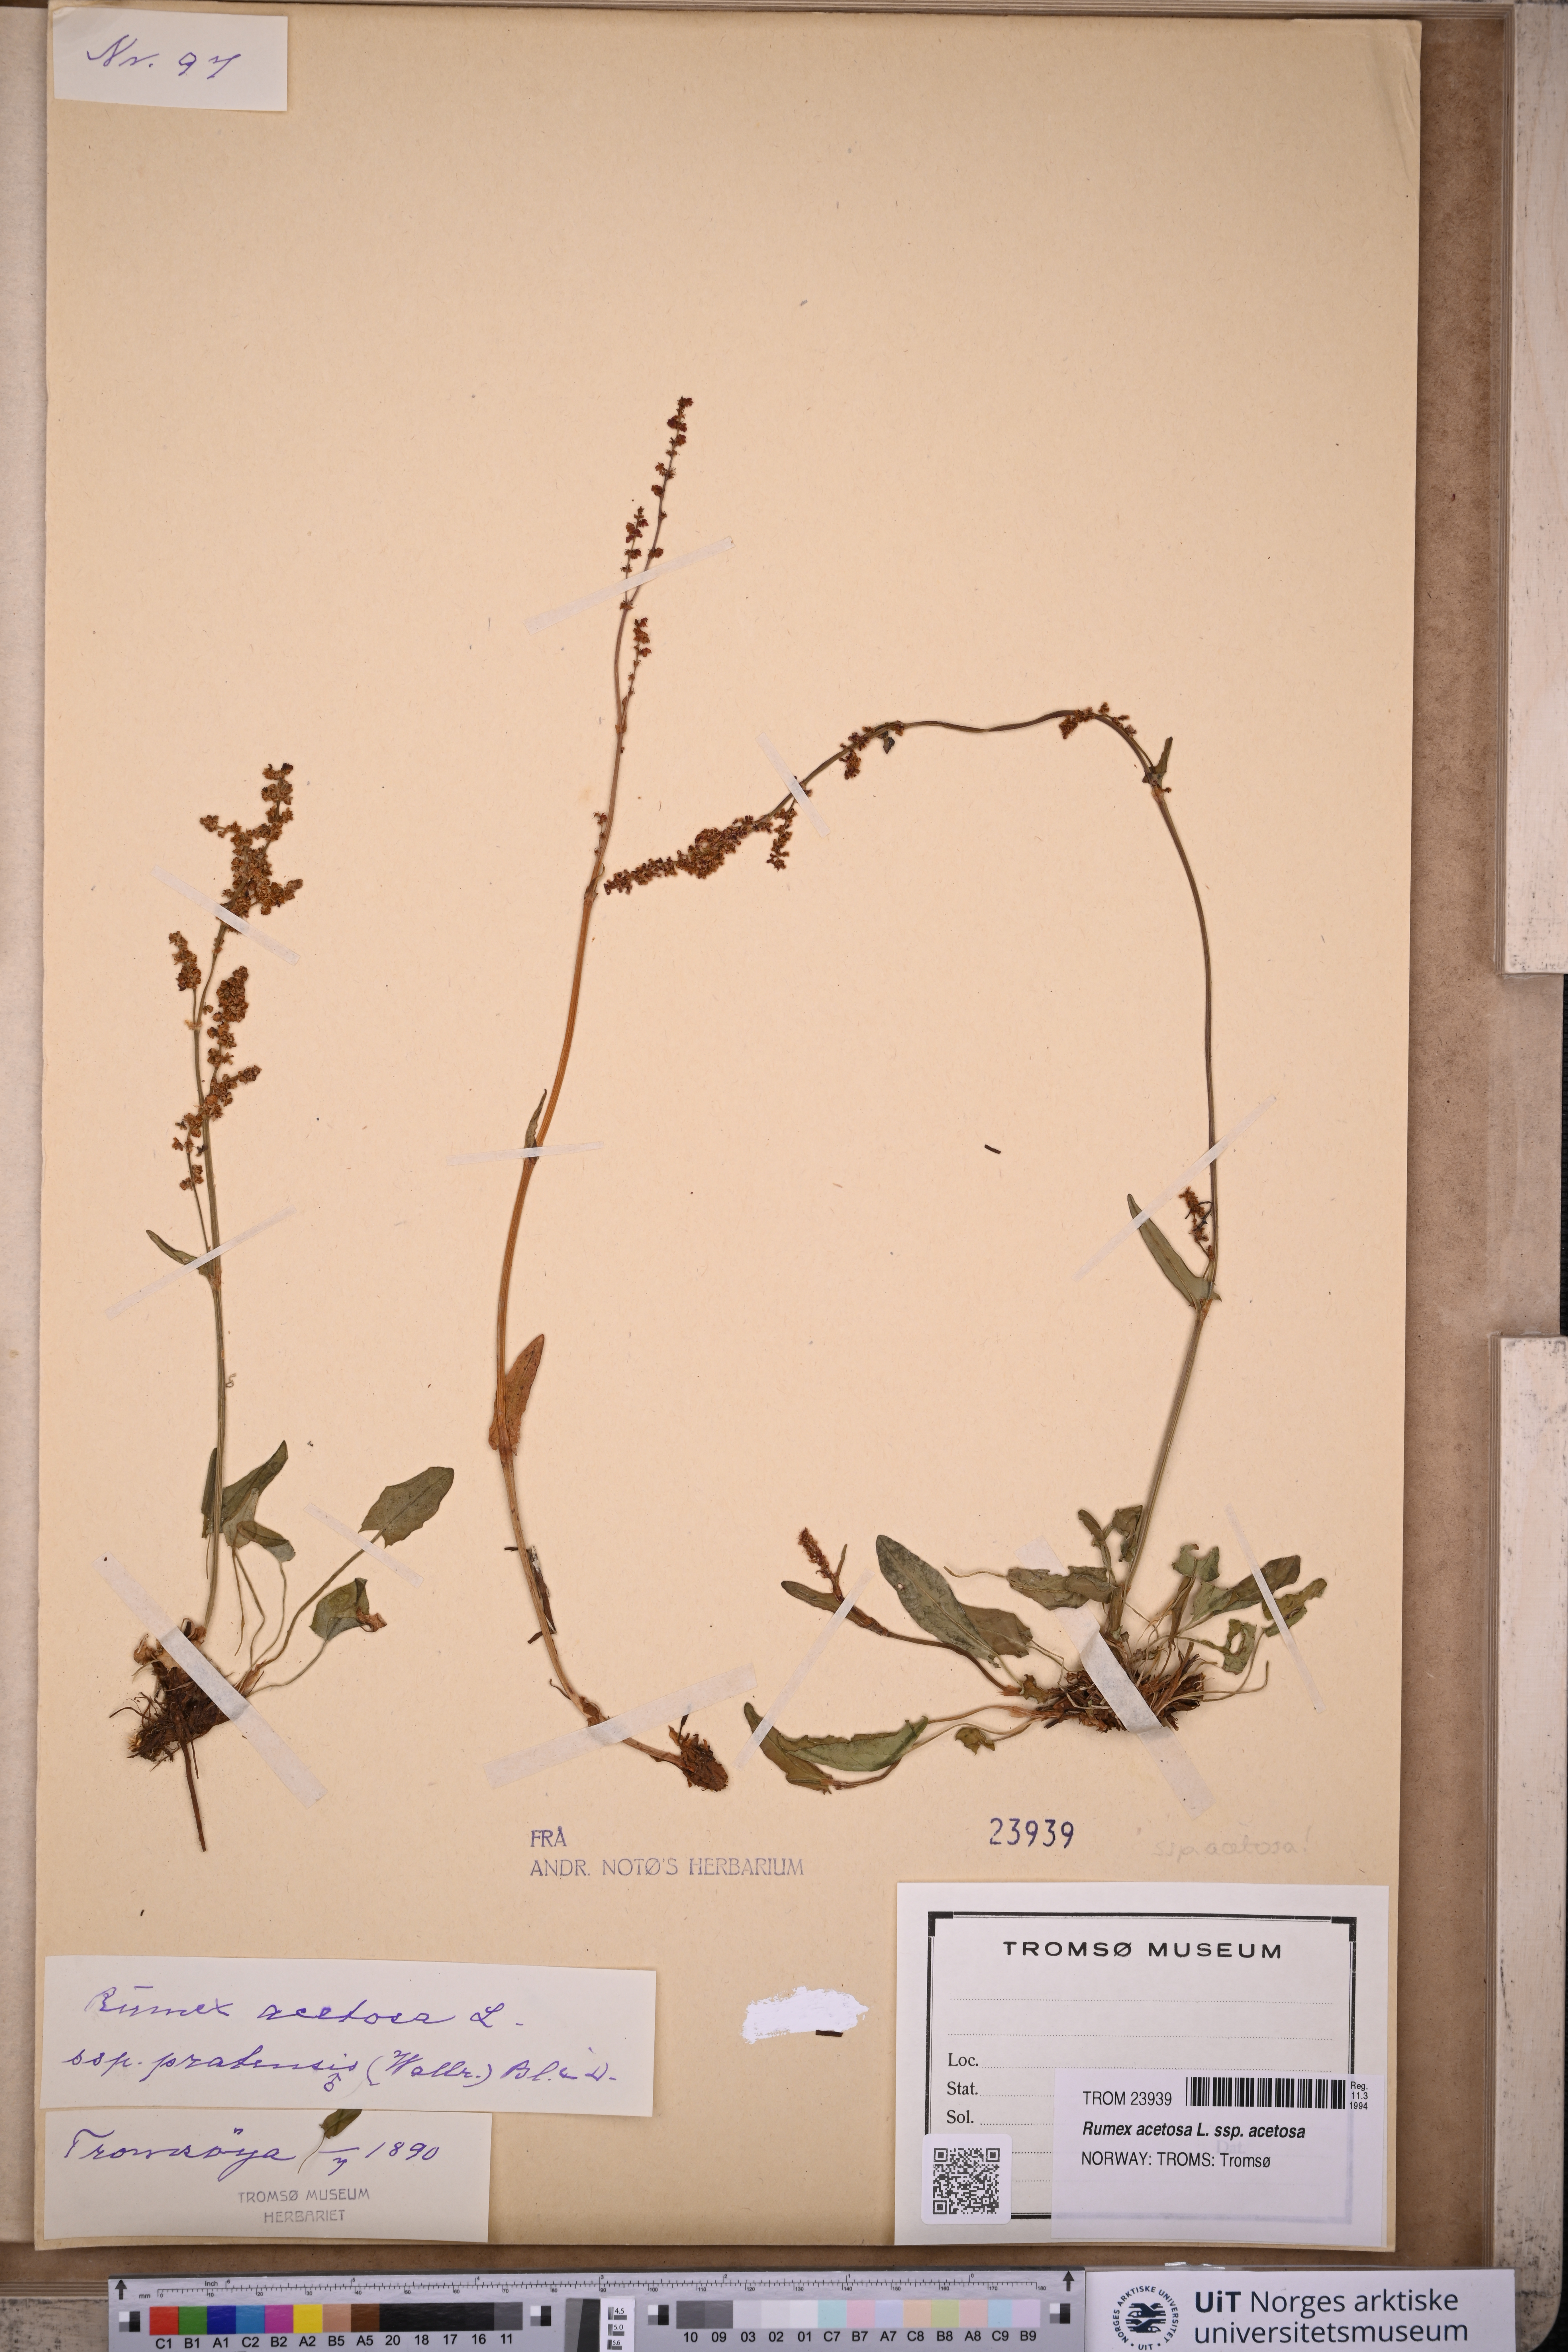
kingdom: Plantae
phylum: Tracheophyta
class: Magnoliopsida
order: Caryophyllales
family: Polygonaceae
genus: Rumex
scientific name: Rumex acetosa
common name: Garden sorrel
